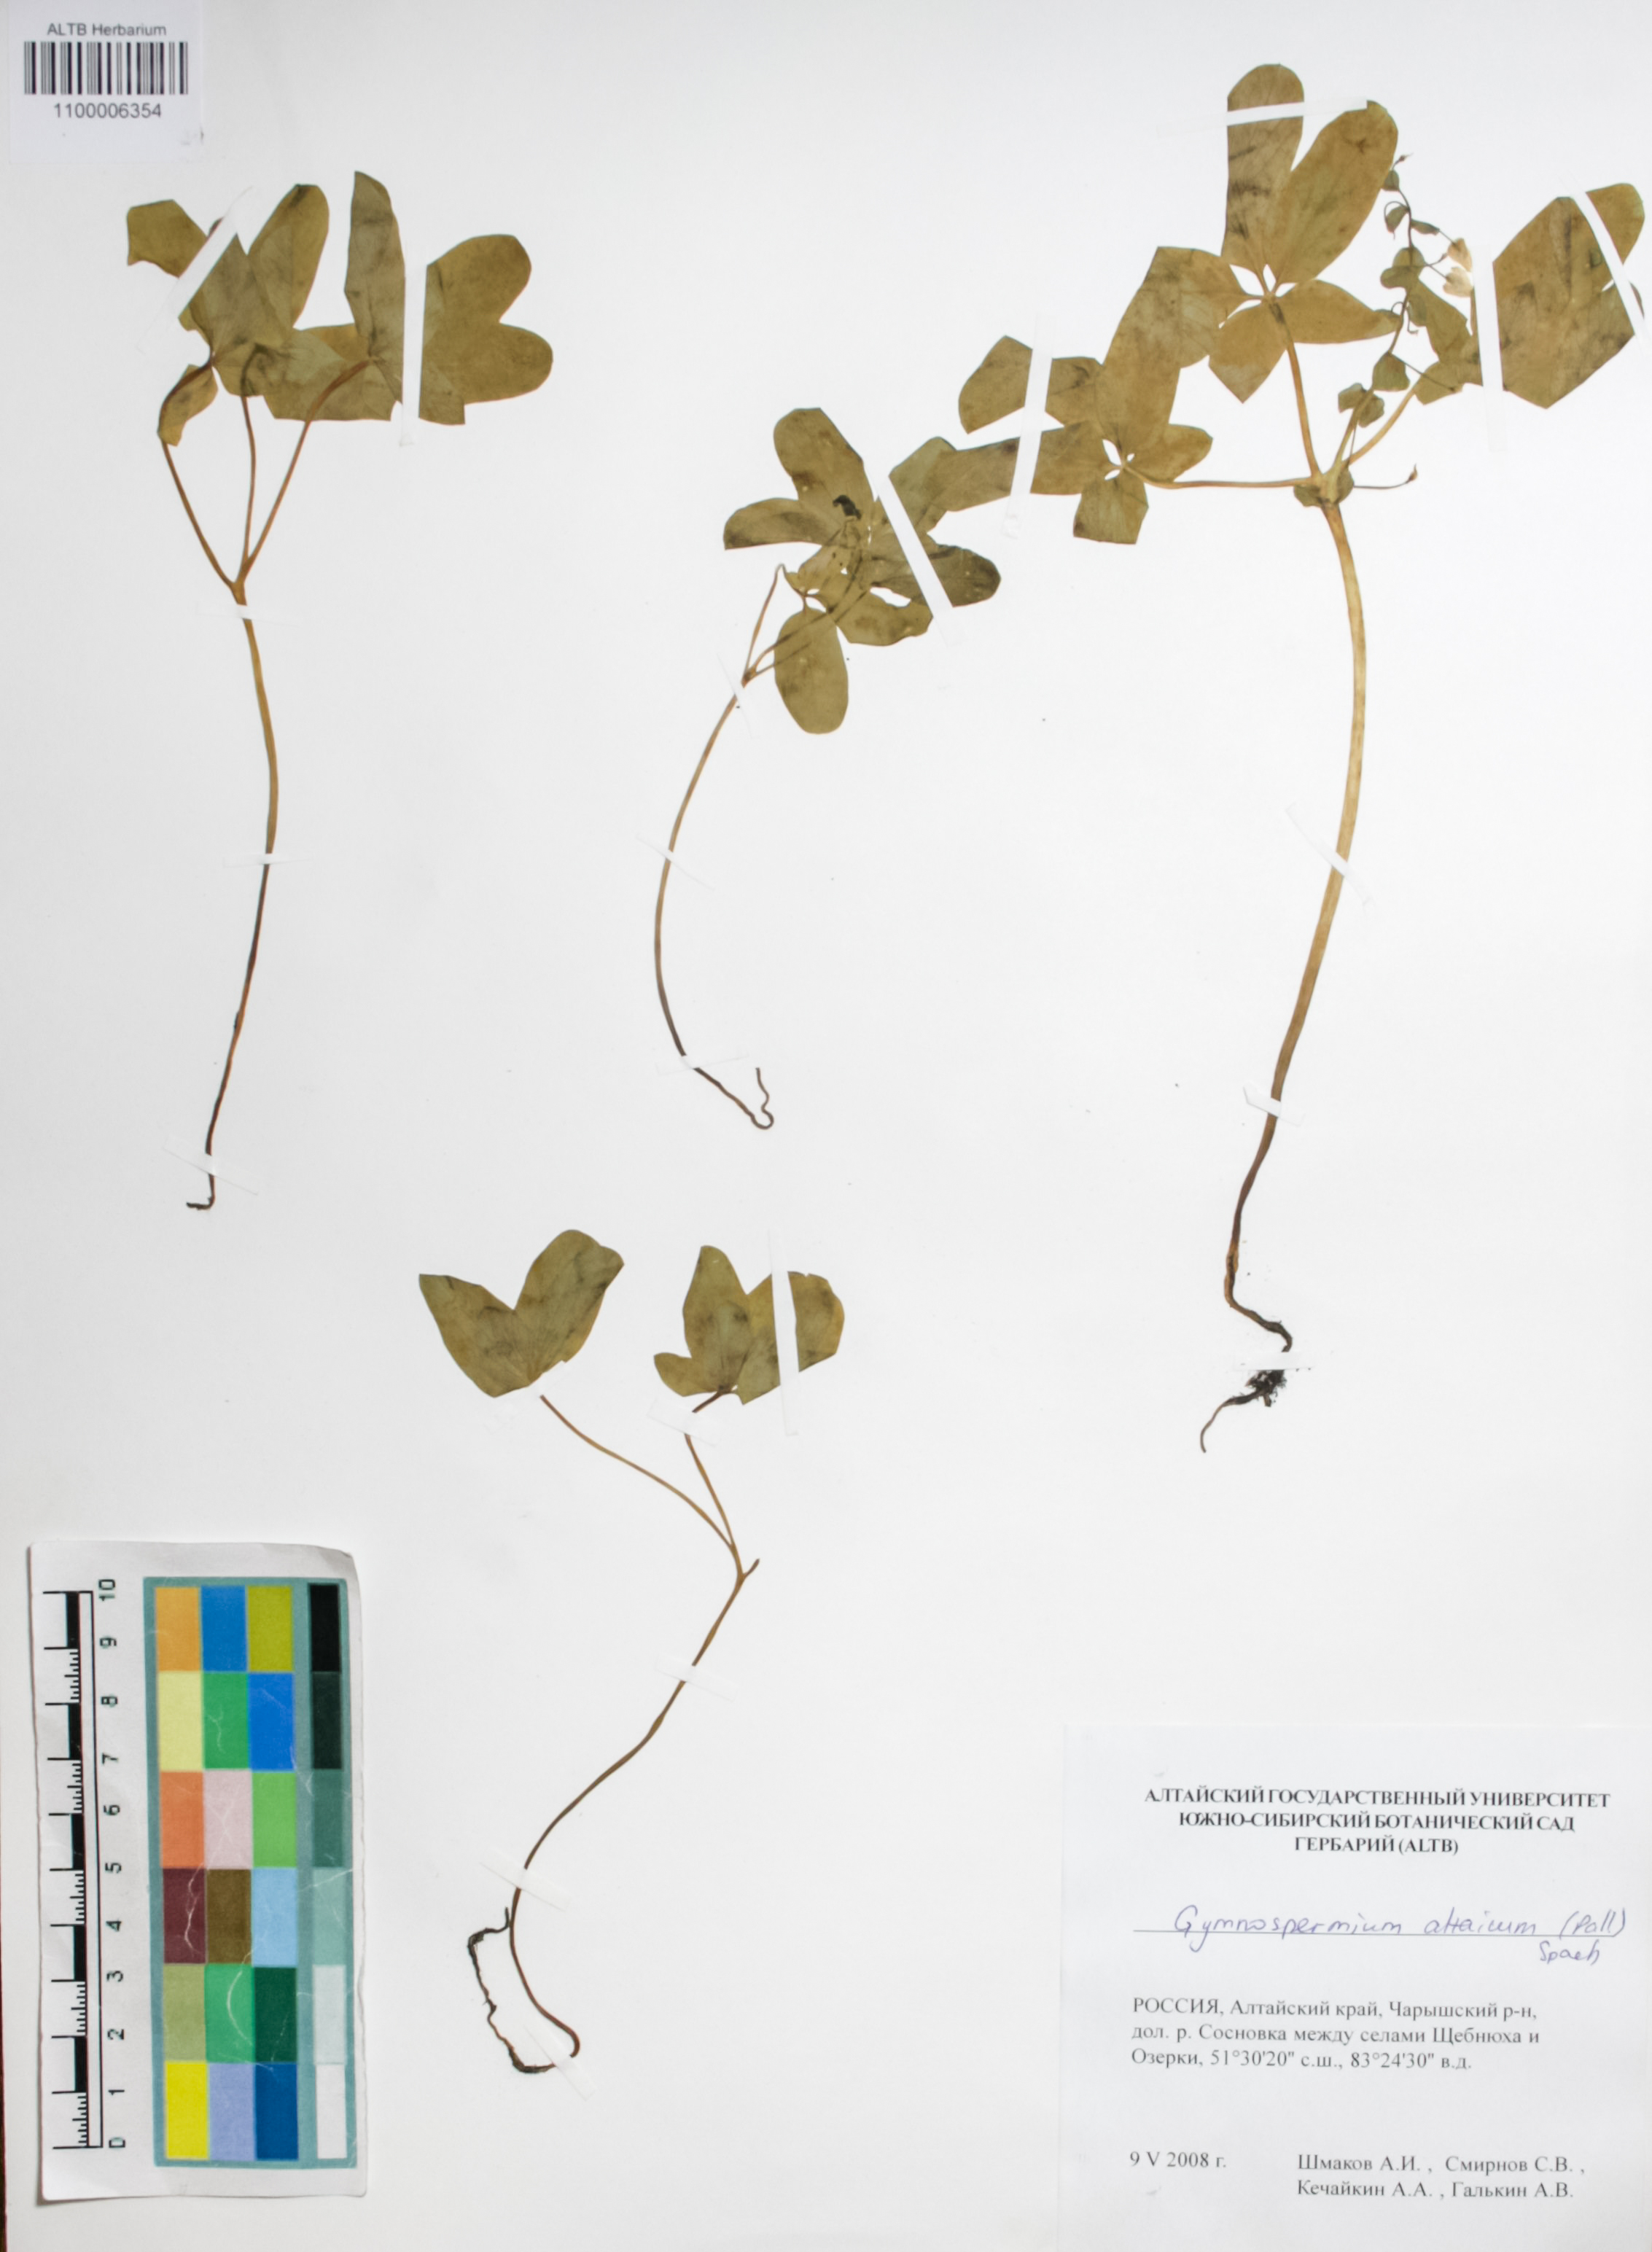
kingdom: Plantae
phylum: Tracheophyta
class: Magnoliopsida
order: Ranunculales
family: Berberidaceae
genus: Gymnospermium
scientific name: Gymnospermium altaicum
